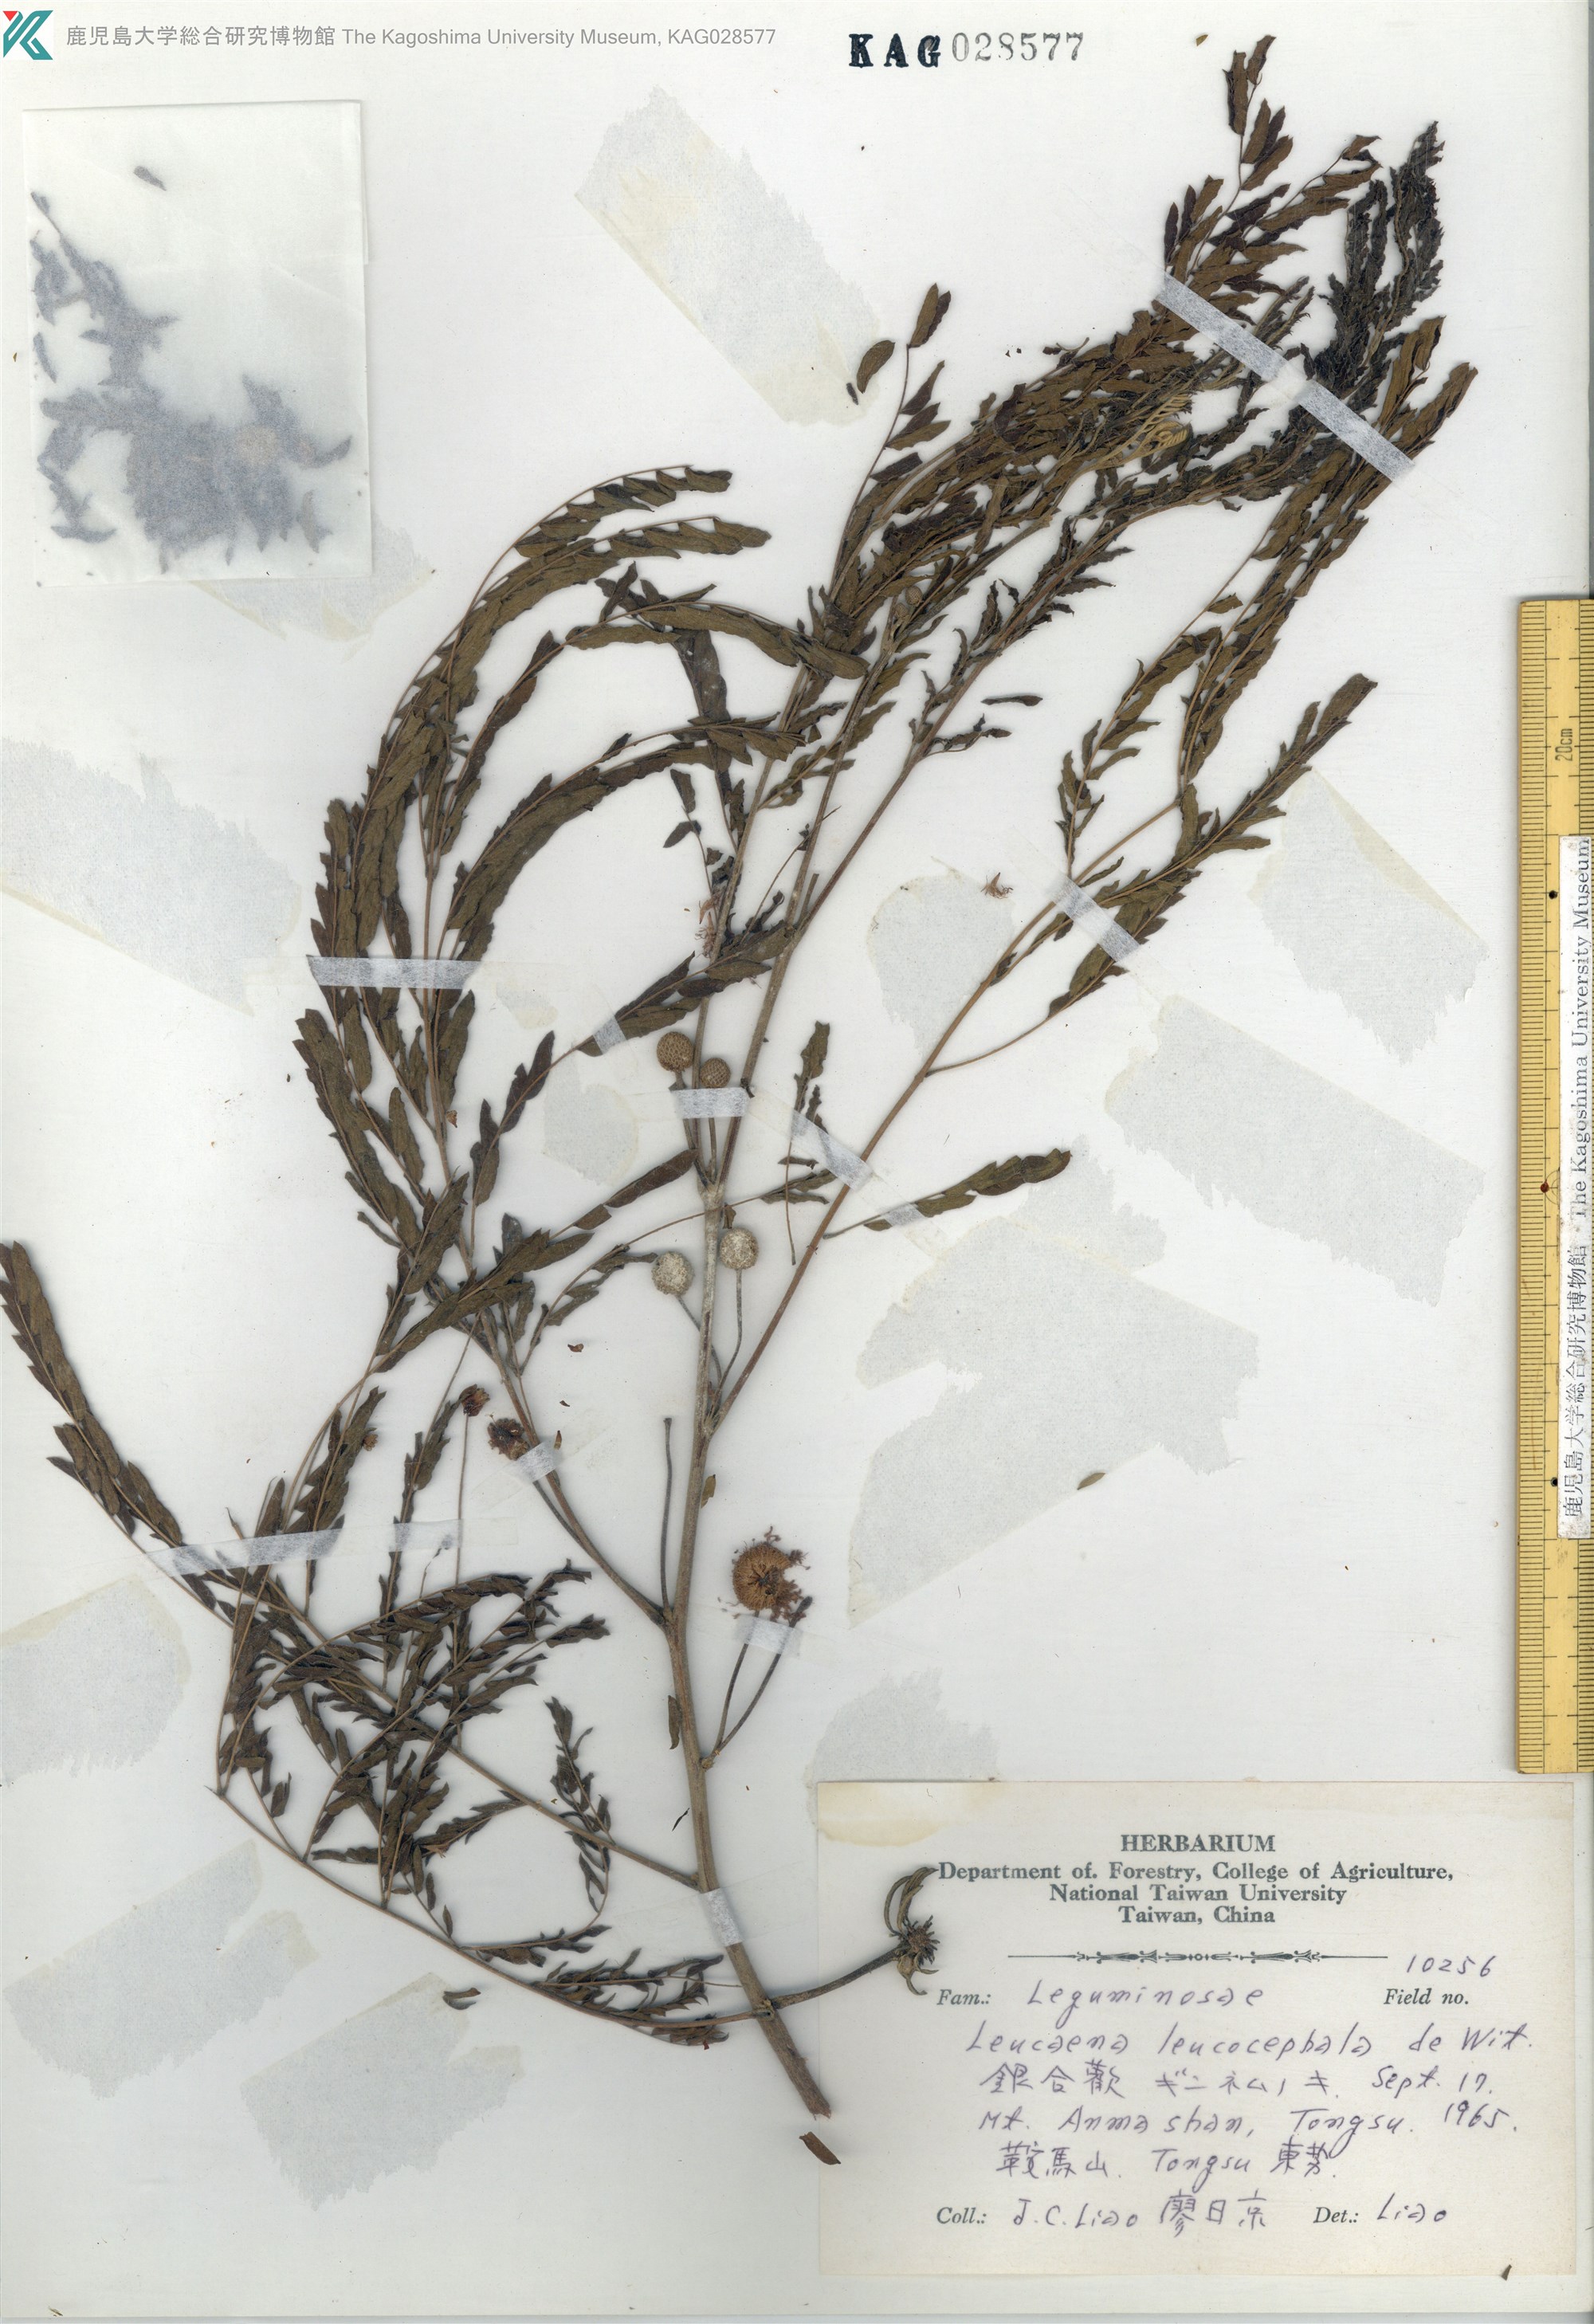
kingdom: Plantae
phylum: Tracheophyta
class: Magnoliopsida
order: Fabales
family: Fabaceae
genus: Leucaena
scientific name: Leucaena leucocephala
